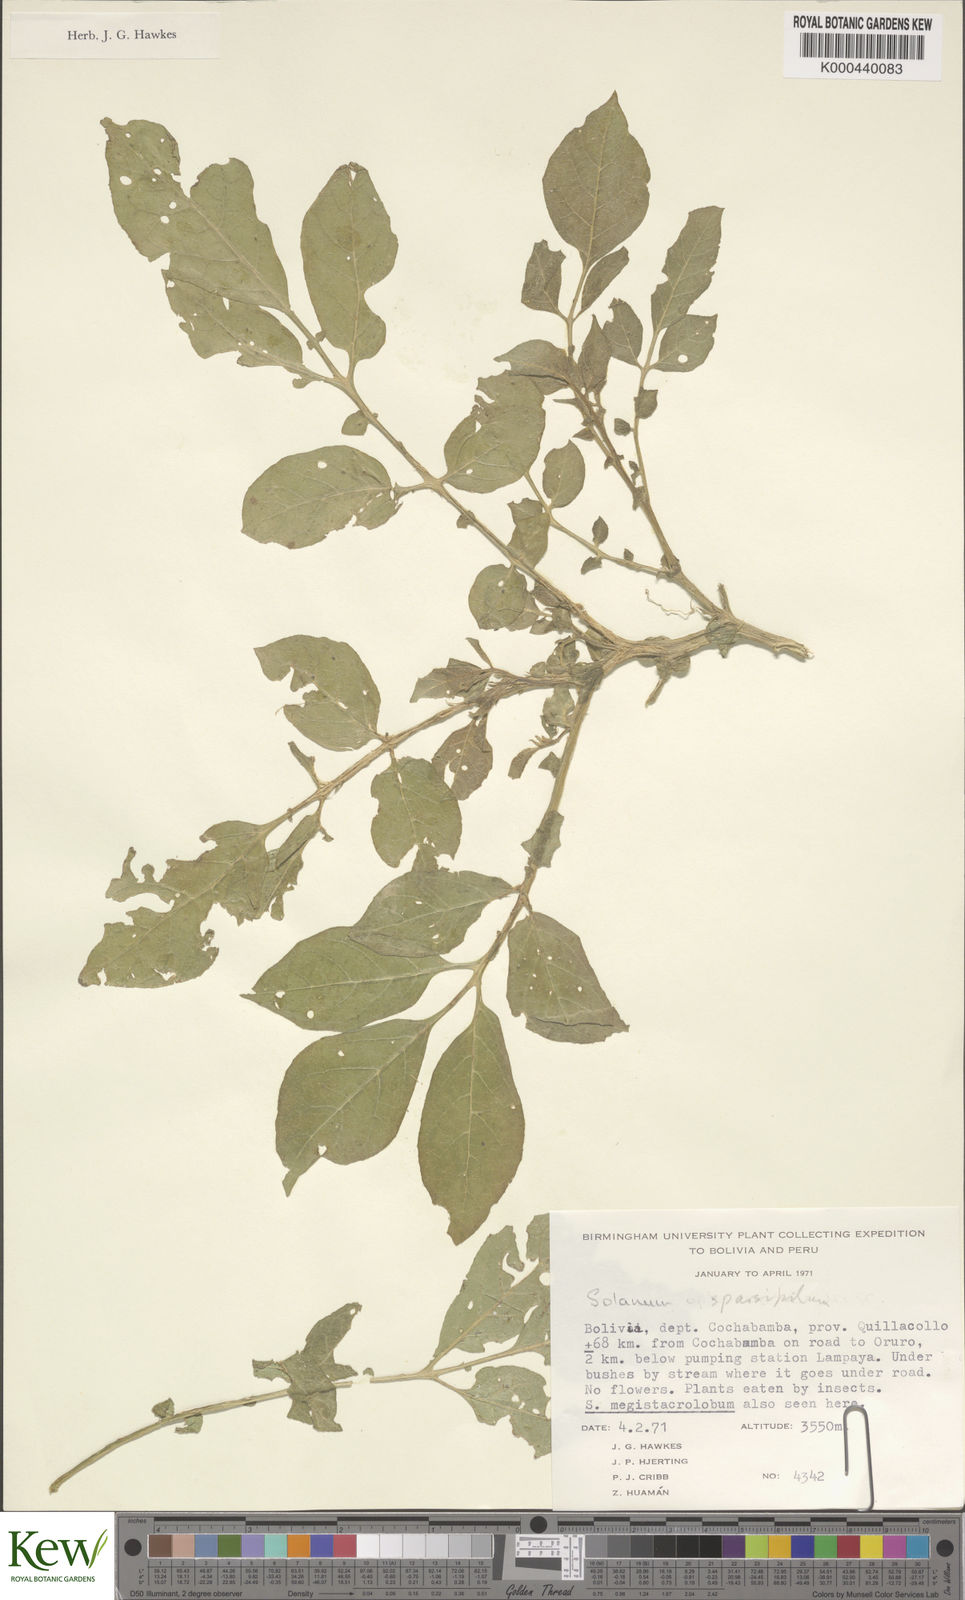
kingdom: Plantae
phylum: Tracheophyta
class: Magnoliopsida
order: Solanales
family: Solanaceae
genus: Solanum
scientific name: Solanum brevicaule
